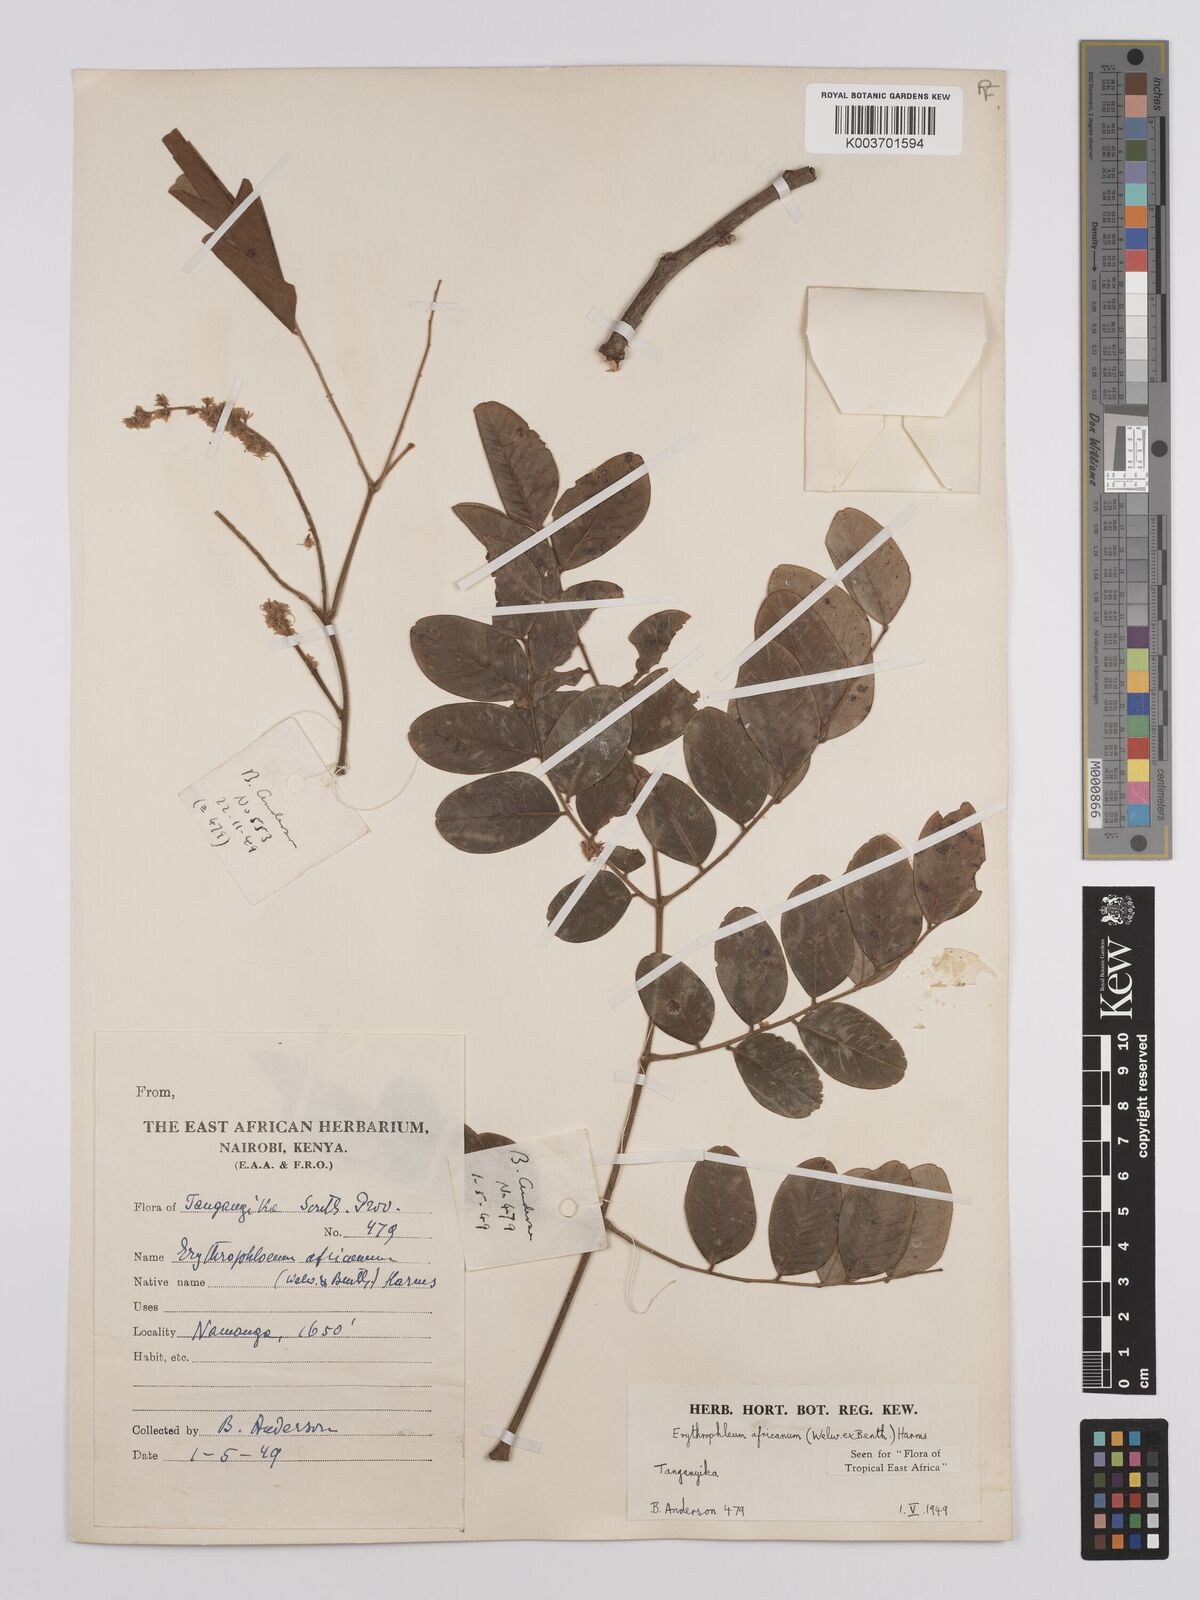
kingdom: Plantae
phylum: Tracheophyta
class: Magnoliopsida
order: Fabales
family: Fabaceae
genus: Erythrophleum
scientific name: Erythrophleum africanum
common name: African blackwood
